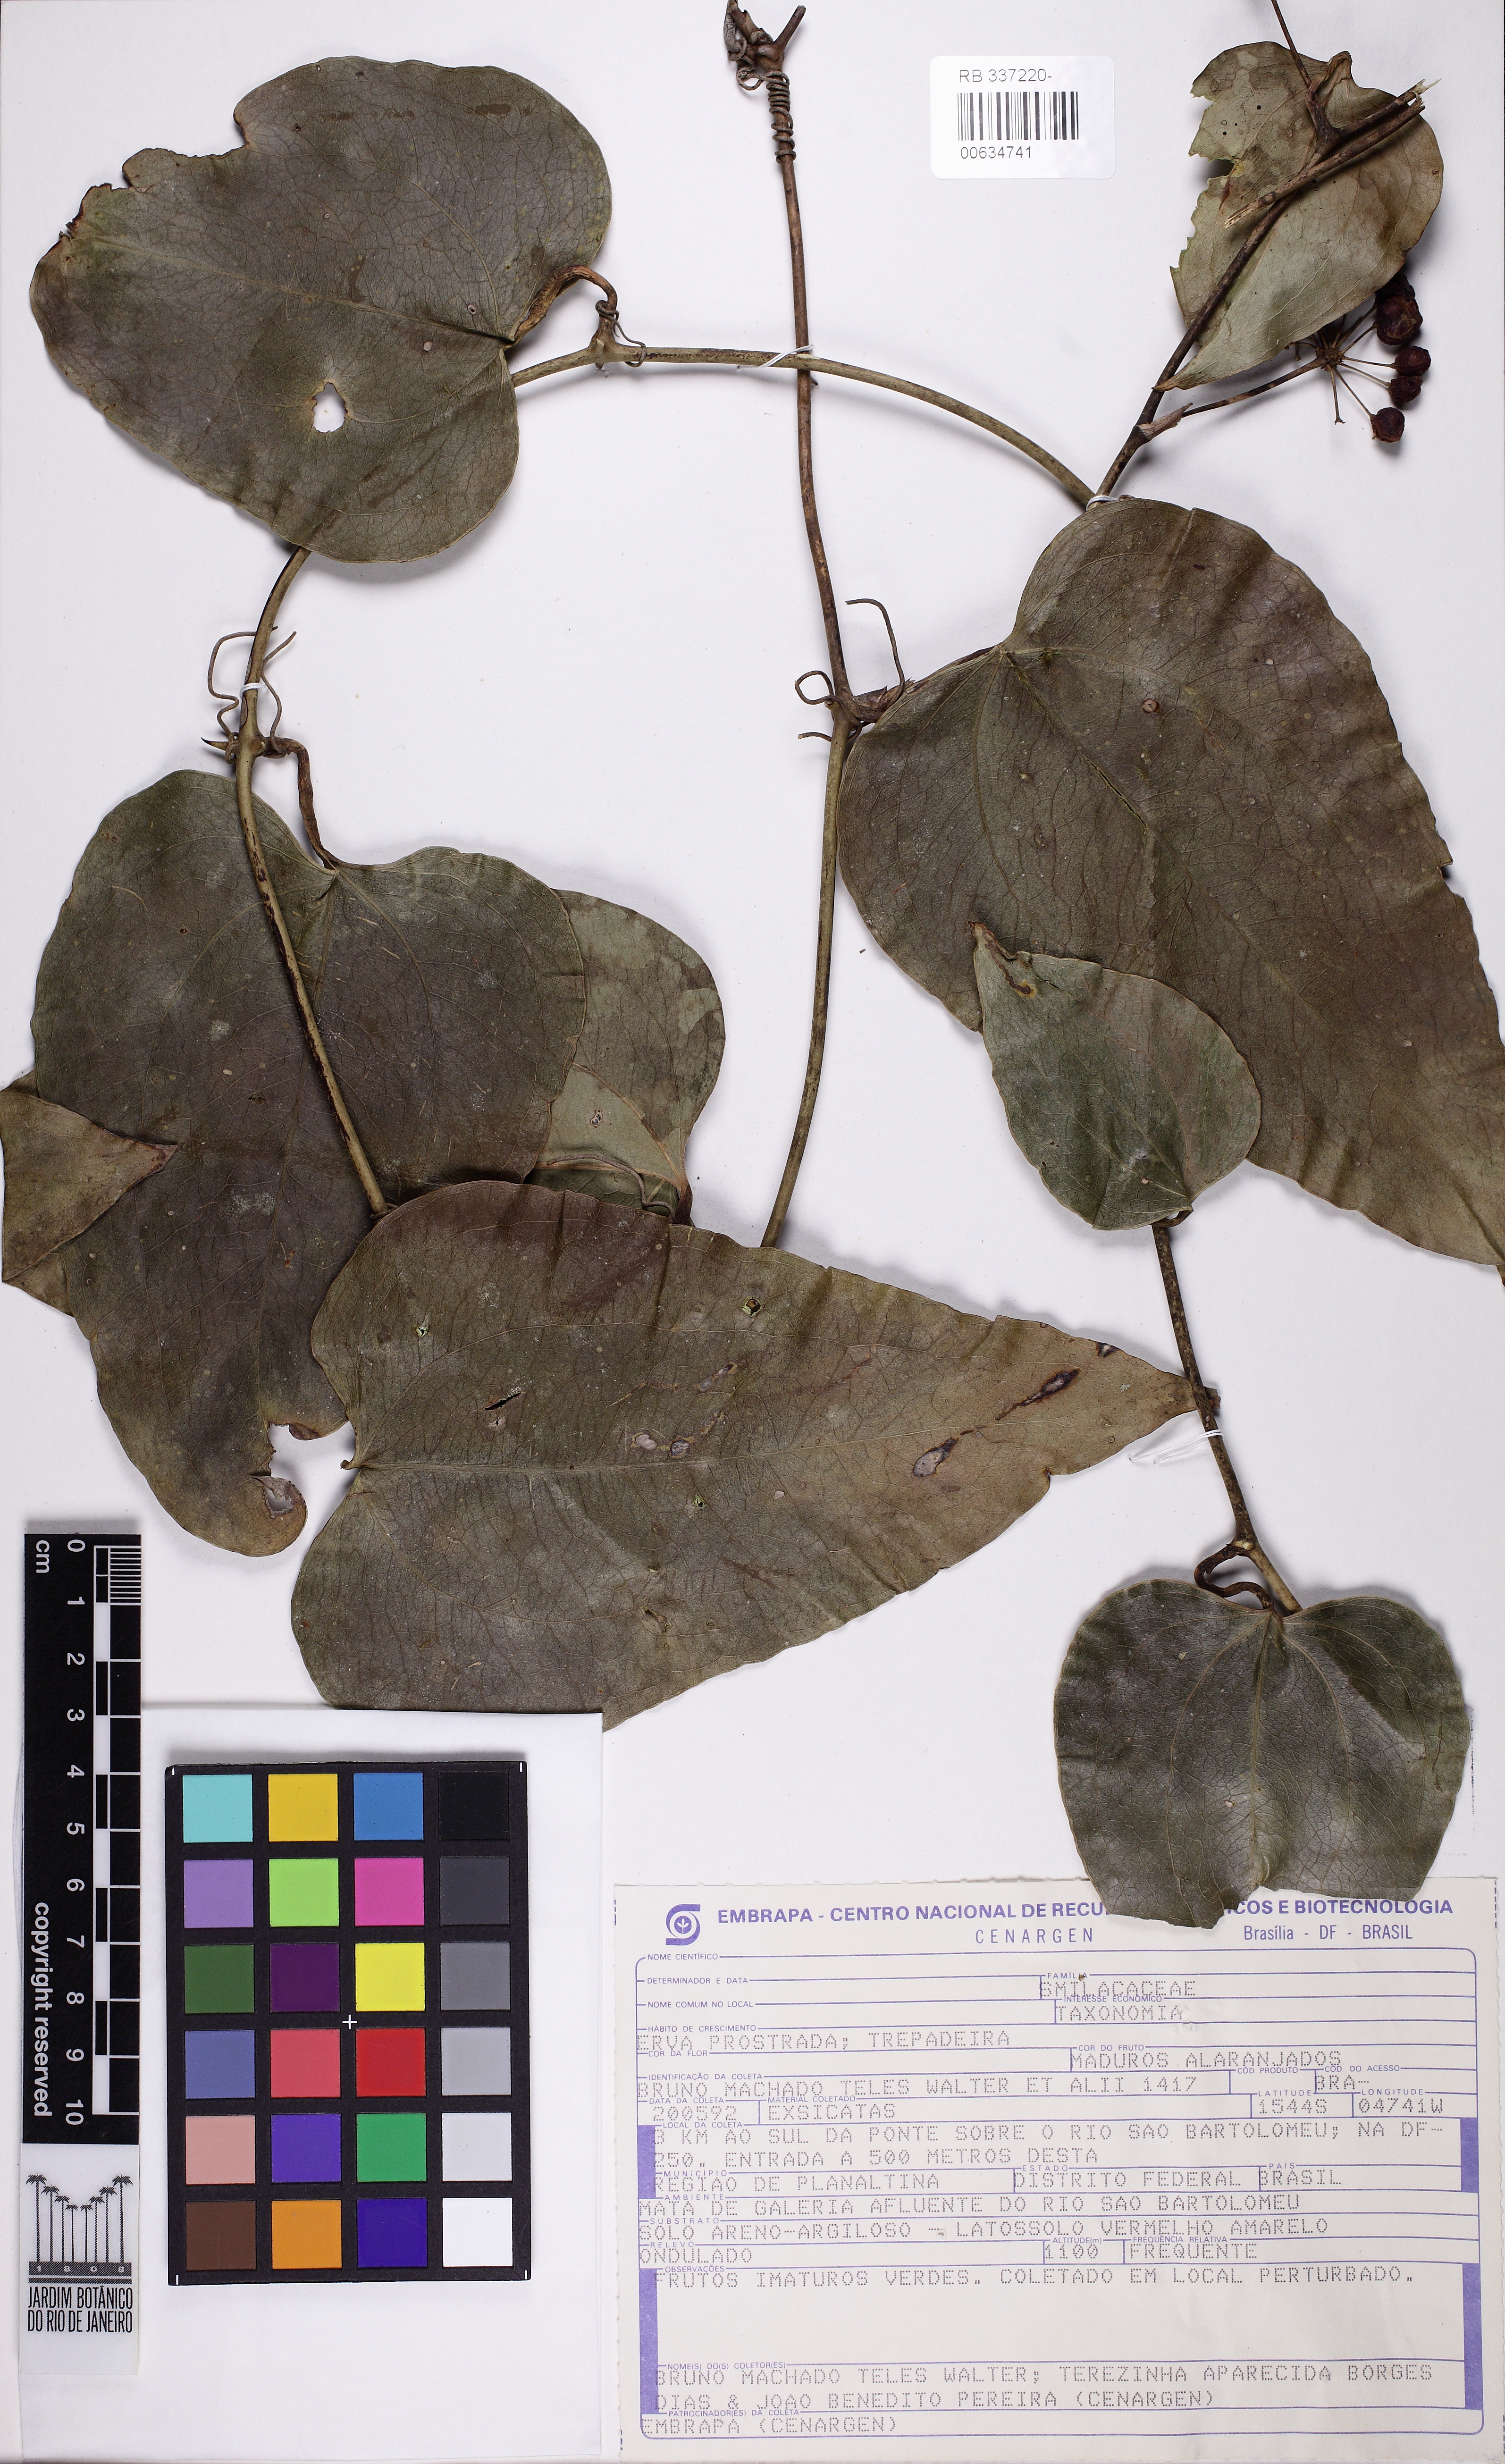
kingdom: Plantae
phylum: Tracheophyta
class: Liliopsida
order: Liliales
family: Smilacaceae
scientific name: Smilacaceae
